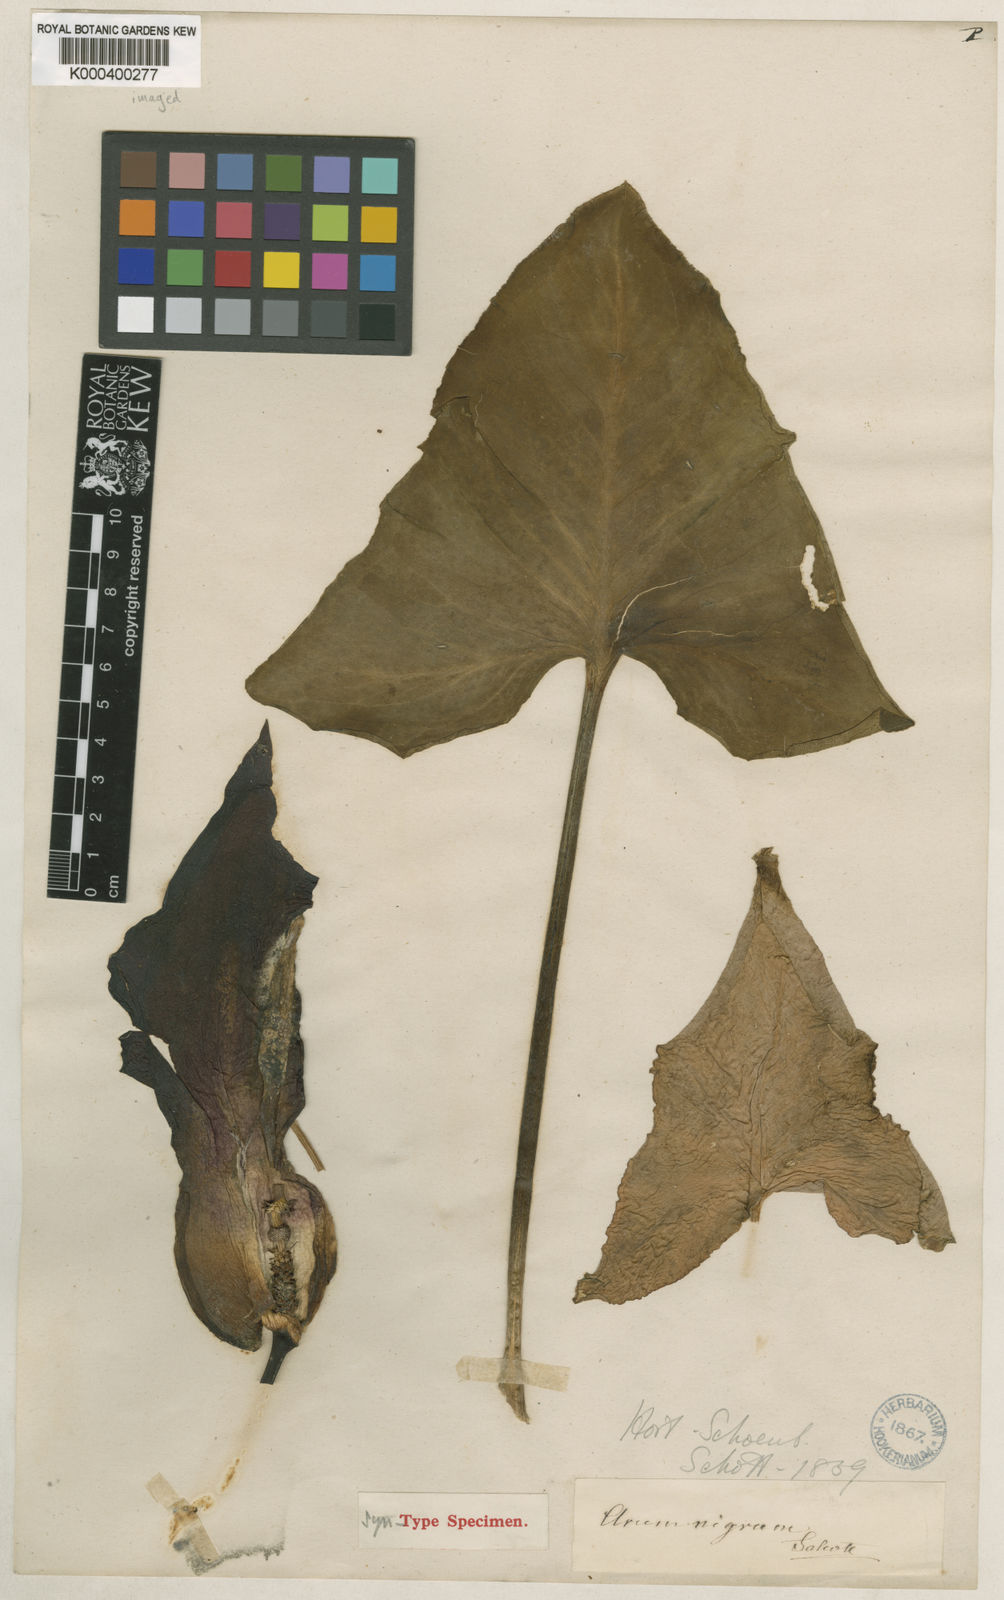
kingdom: Plantae
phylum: Tracheophyta
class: Liliopsida
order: Alismatales
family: Araceae
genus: Arum
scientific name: Arum nigrum
